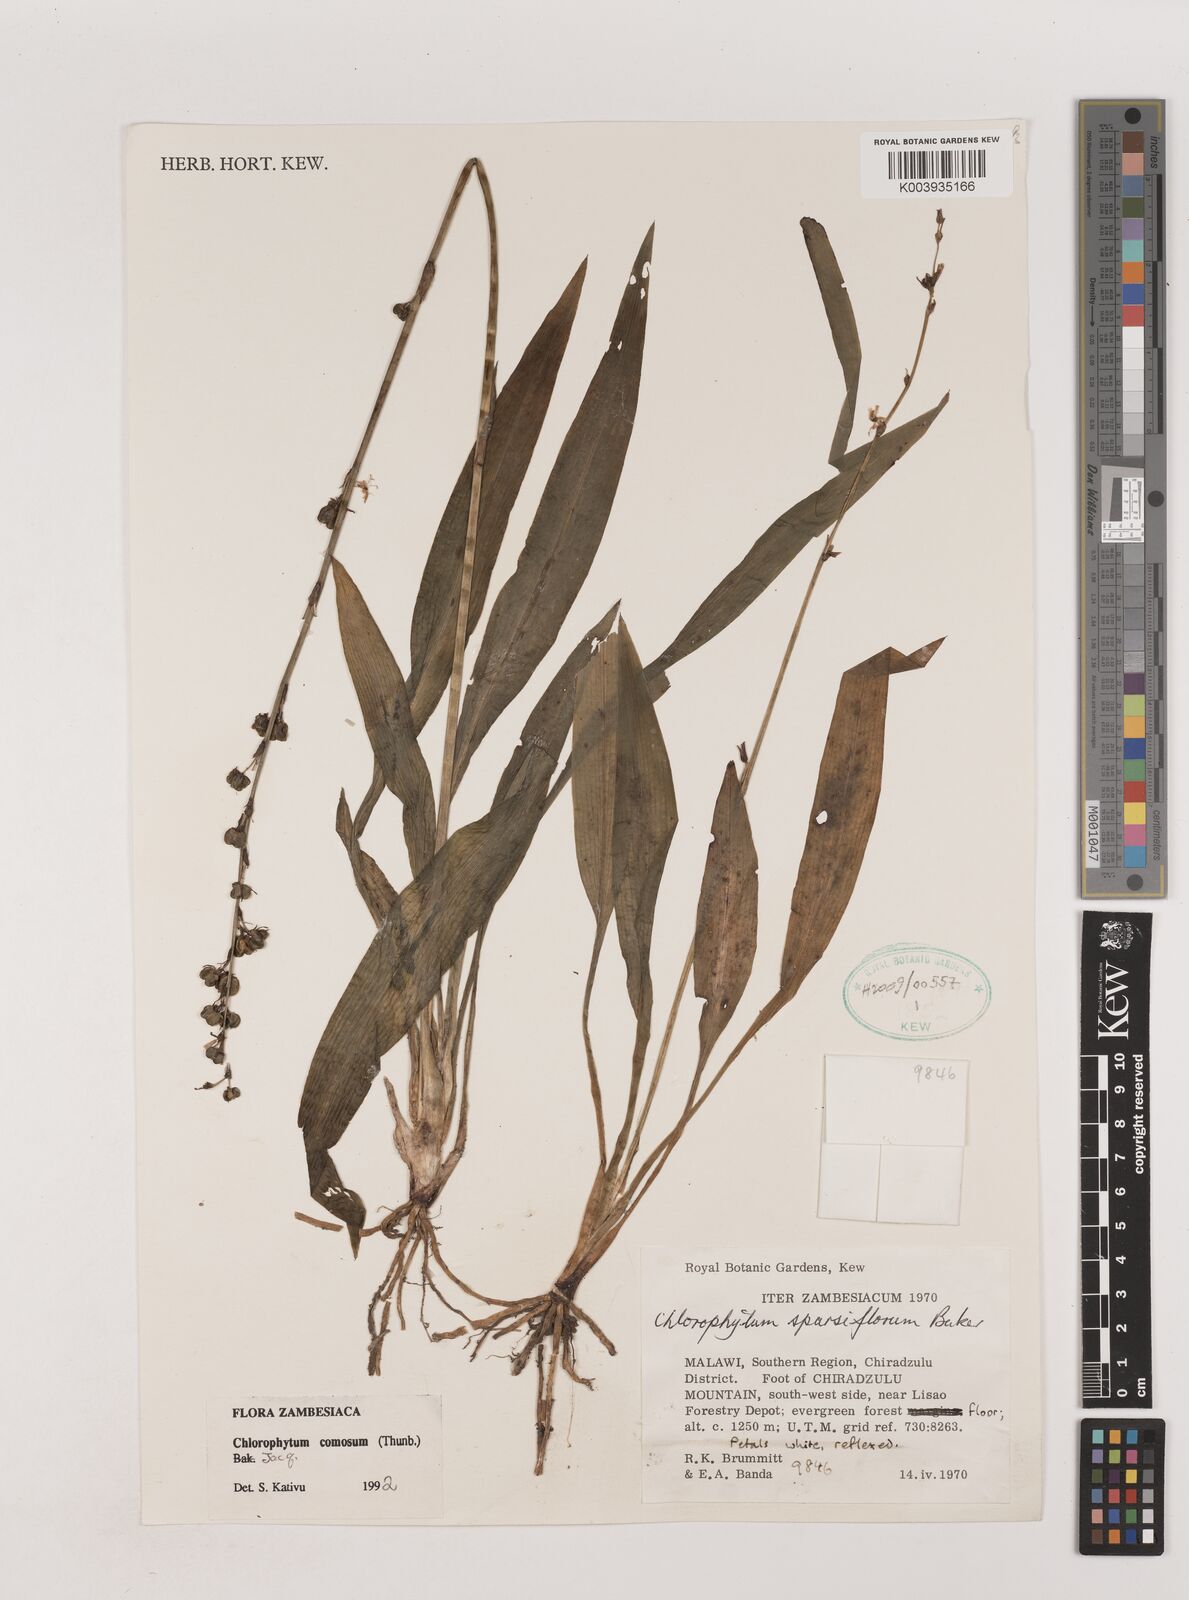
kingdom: Plantae
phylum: Tracheophyta
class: Liliopsida
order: Asparagales
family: Asparagaceae
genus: Chlorophytum
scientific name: Chlorophytum comosum
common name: Spider plant
